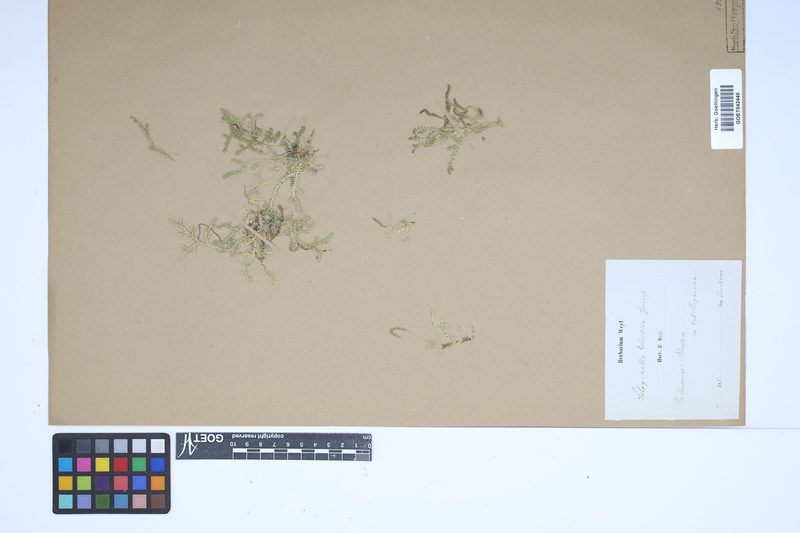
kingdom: Plantae
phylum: Tracheophyta
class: Lycopodiopsida
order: Selaginellales
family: Selaginellaceae
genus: Selaginella
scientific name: Selaginella helvetica
